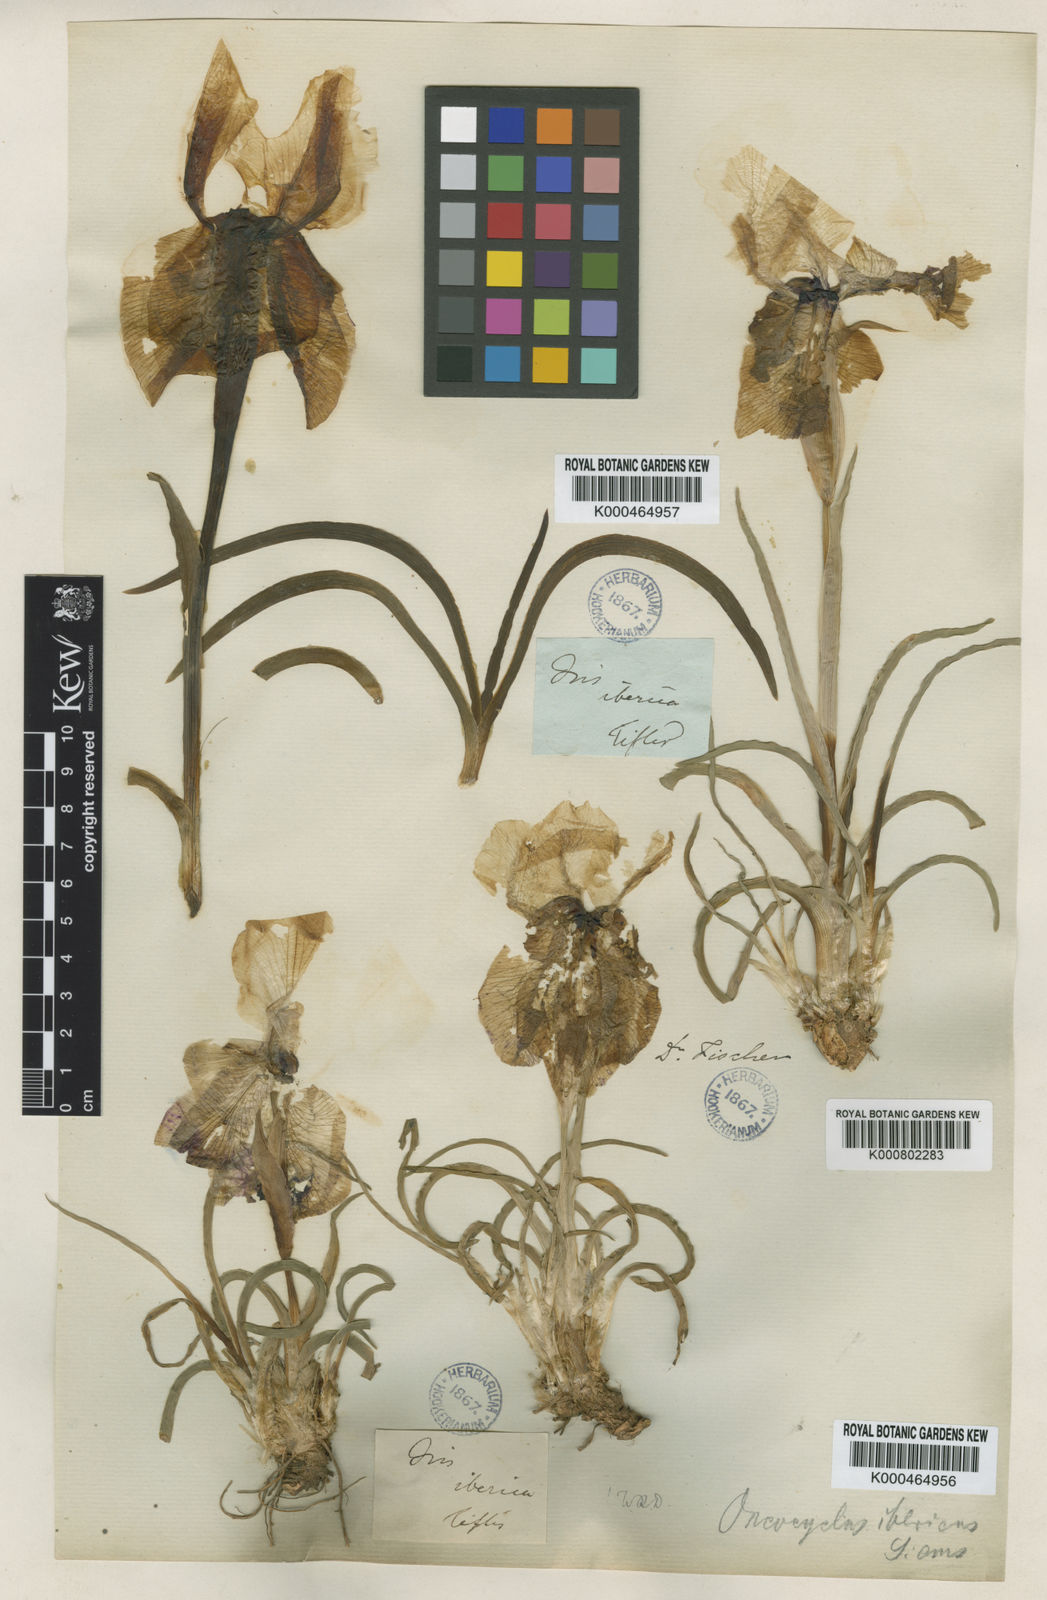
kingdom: Plantae
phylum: Tracheophyta
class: Liliopsida
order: Asparagales
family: Iridaceae
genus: Iris
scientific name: Iris iberica
